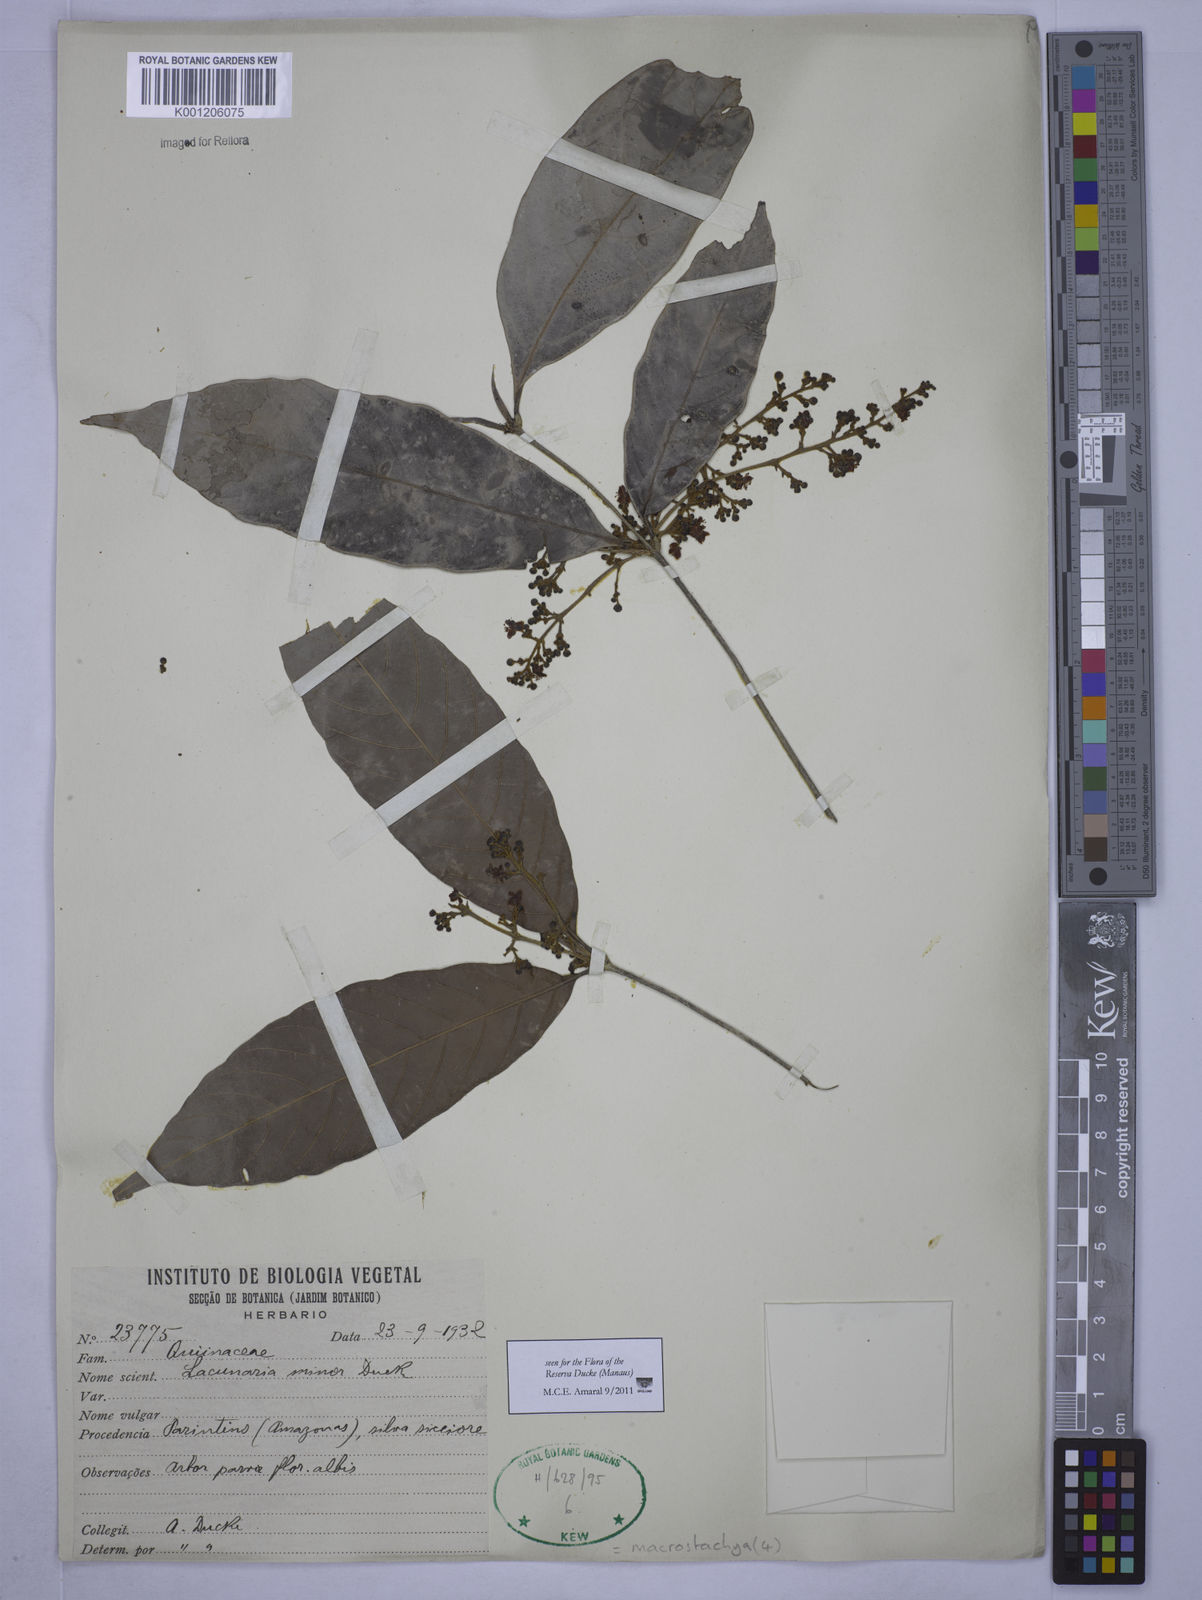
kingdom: Plantae
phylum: Tracheophyta
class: Magnoliopsida
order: Malpighiales
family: Quiinaceae
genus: Lacunaria
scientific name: Lacunaria macrostachya
